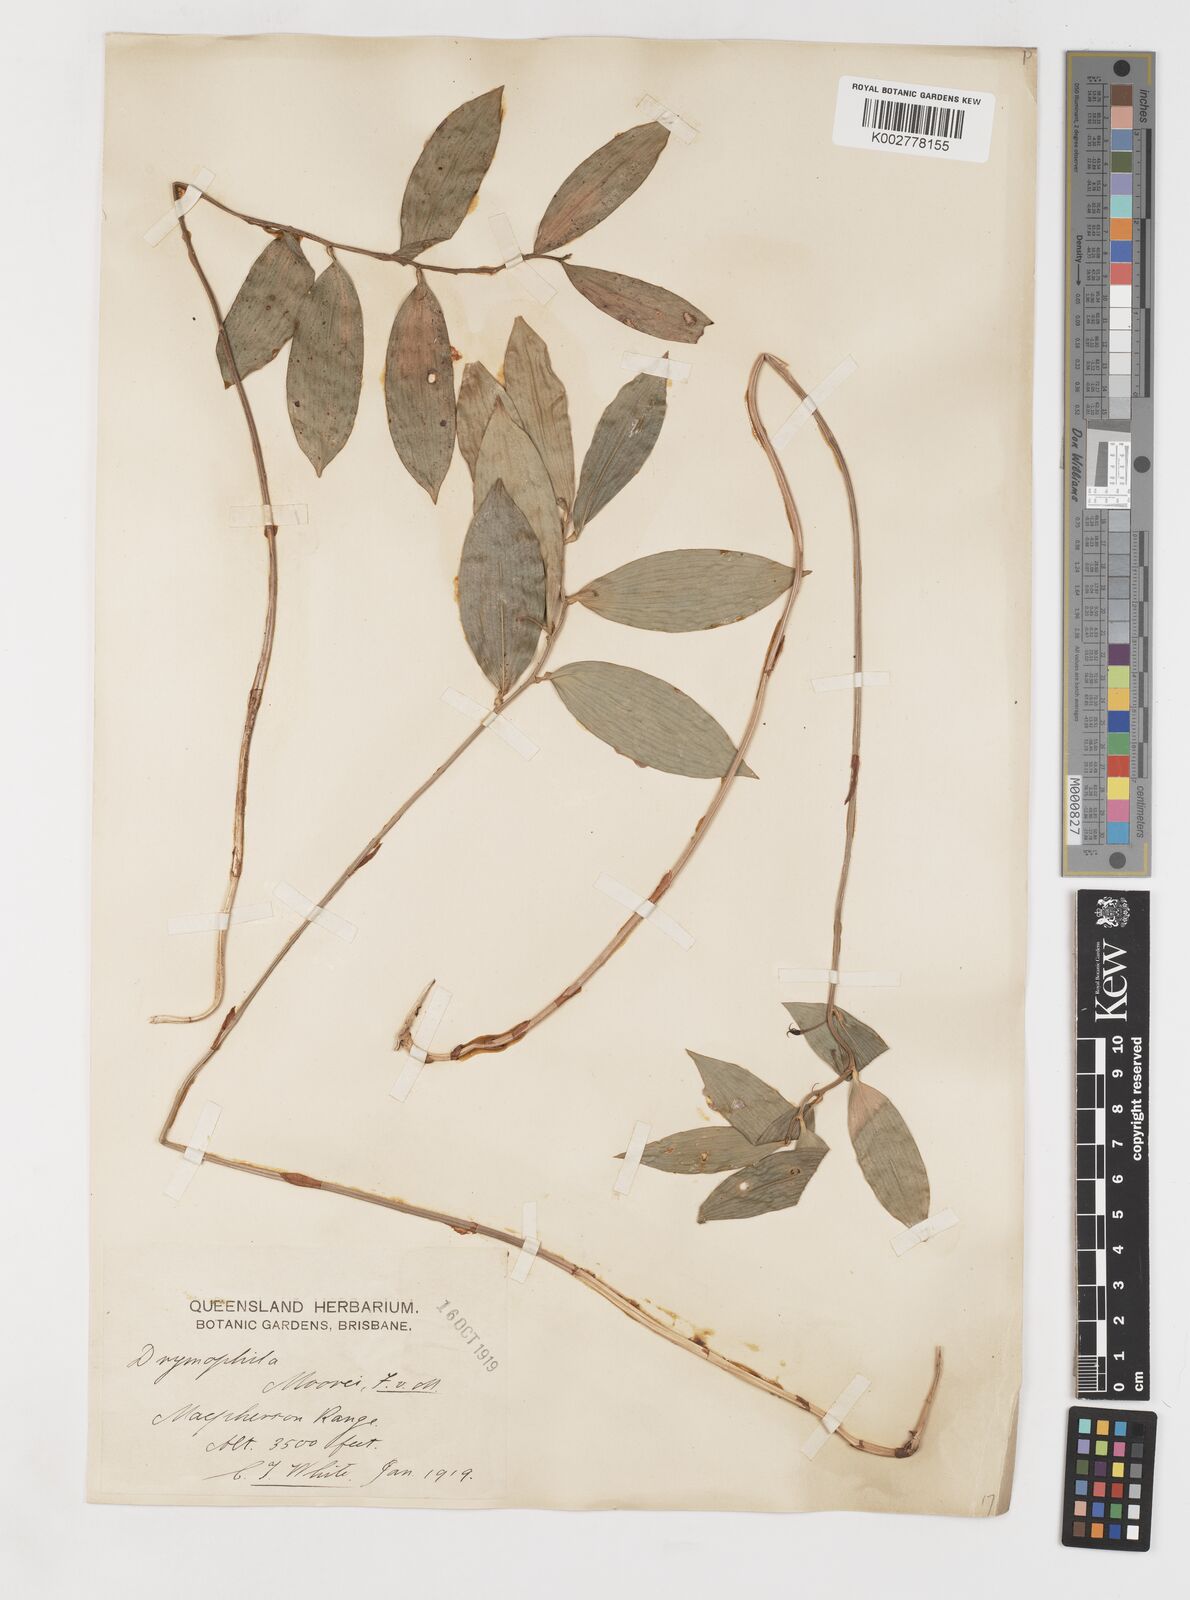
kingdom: Plantae
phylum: Tracheophyta
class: Liliopsida
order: Liliales
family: Alstroemeriaceae
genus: Drymophila
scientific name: Drymophila moorei
